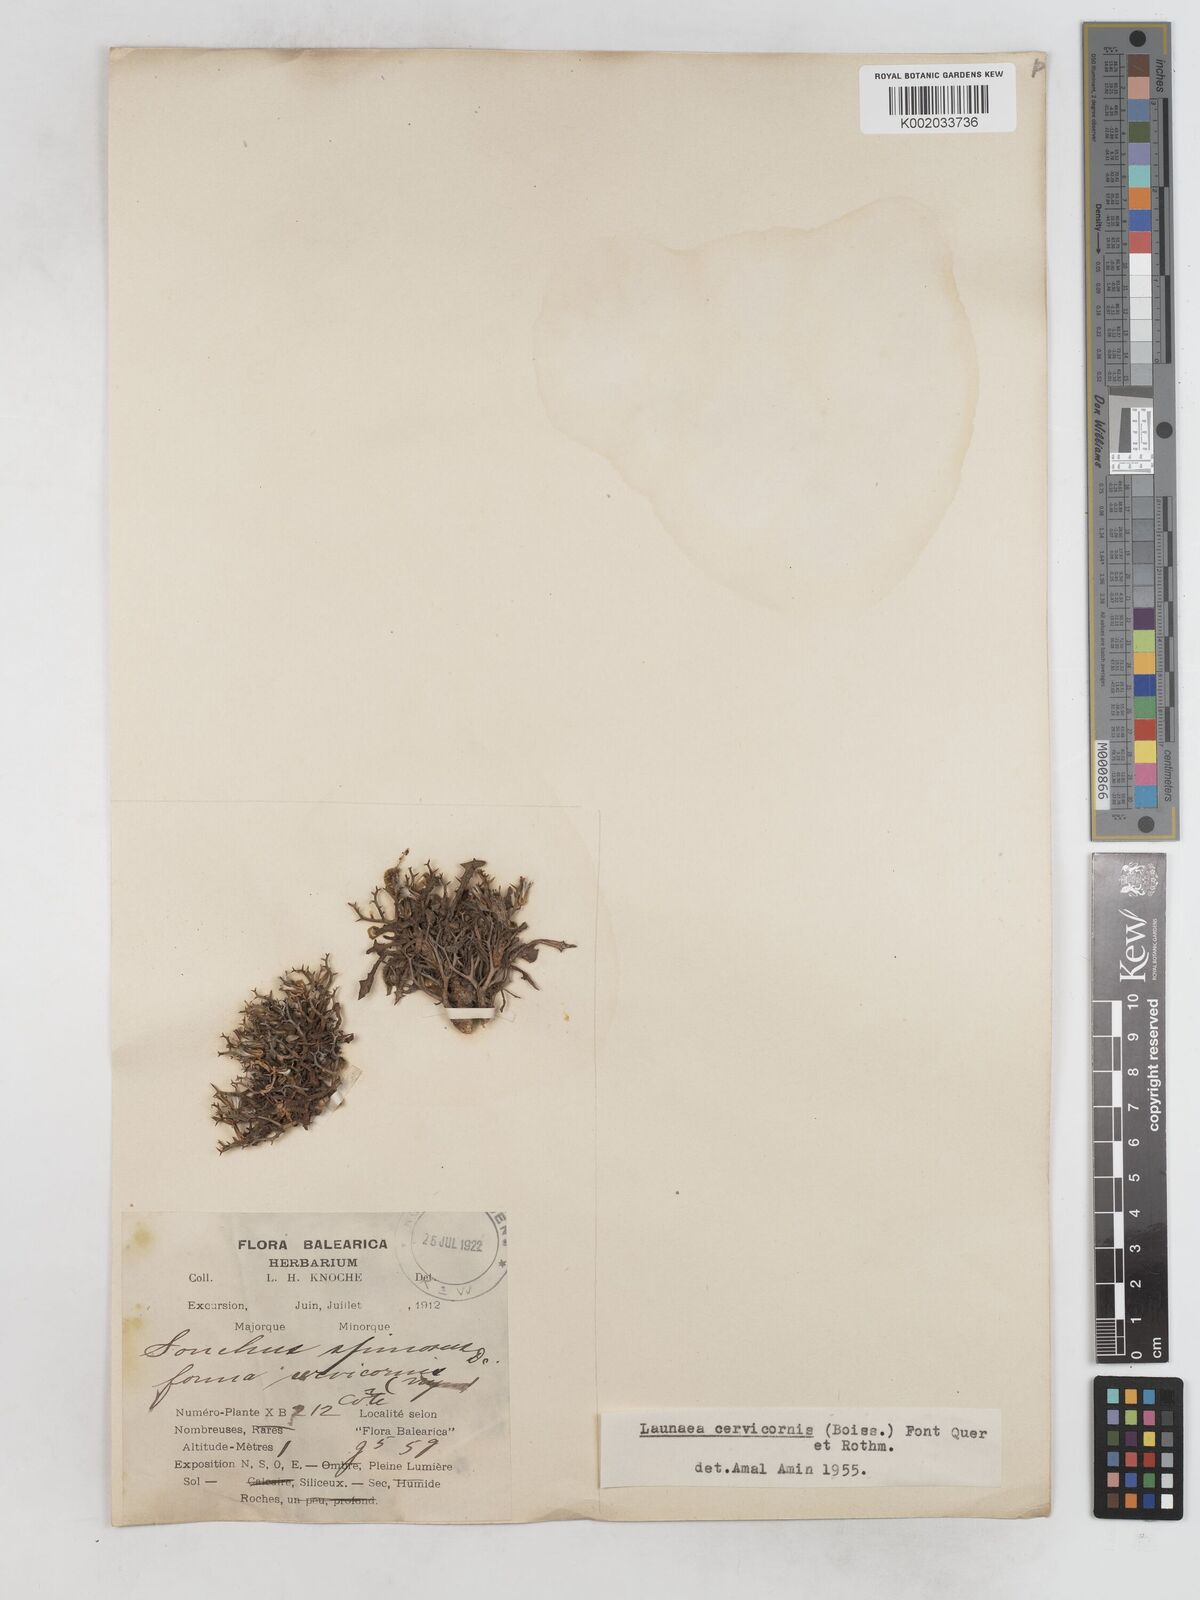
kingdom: Plantae
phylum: Tracheophyta
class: Magnoliopsida
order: Asterales
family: Asteraceae
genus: Launaea
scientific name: Launaea cervicornis
